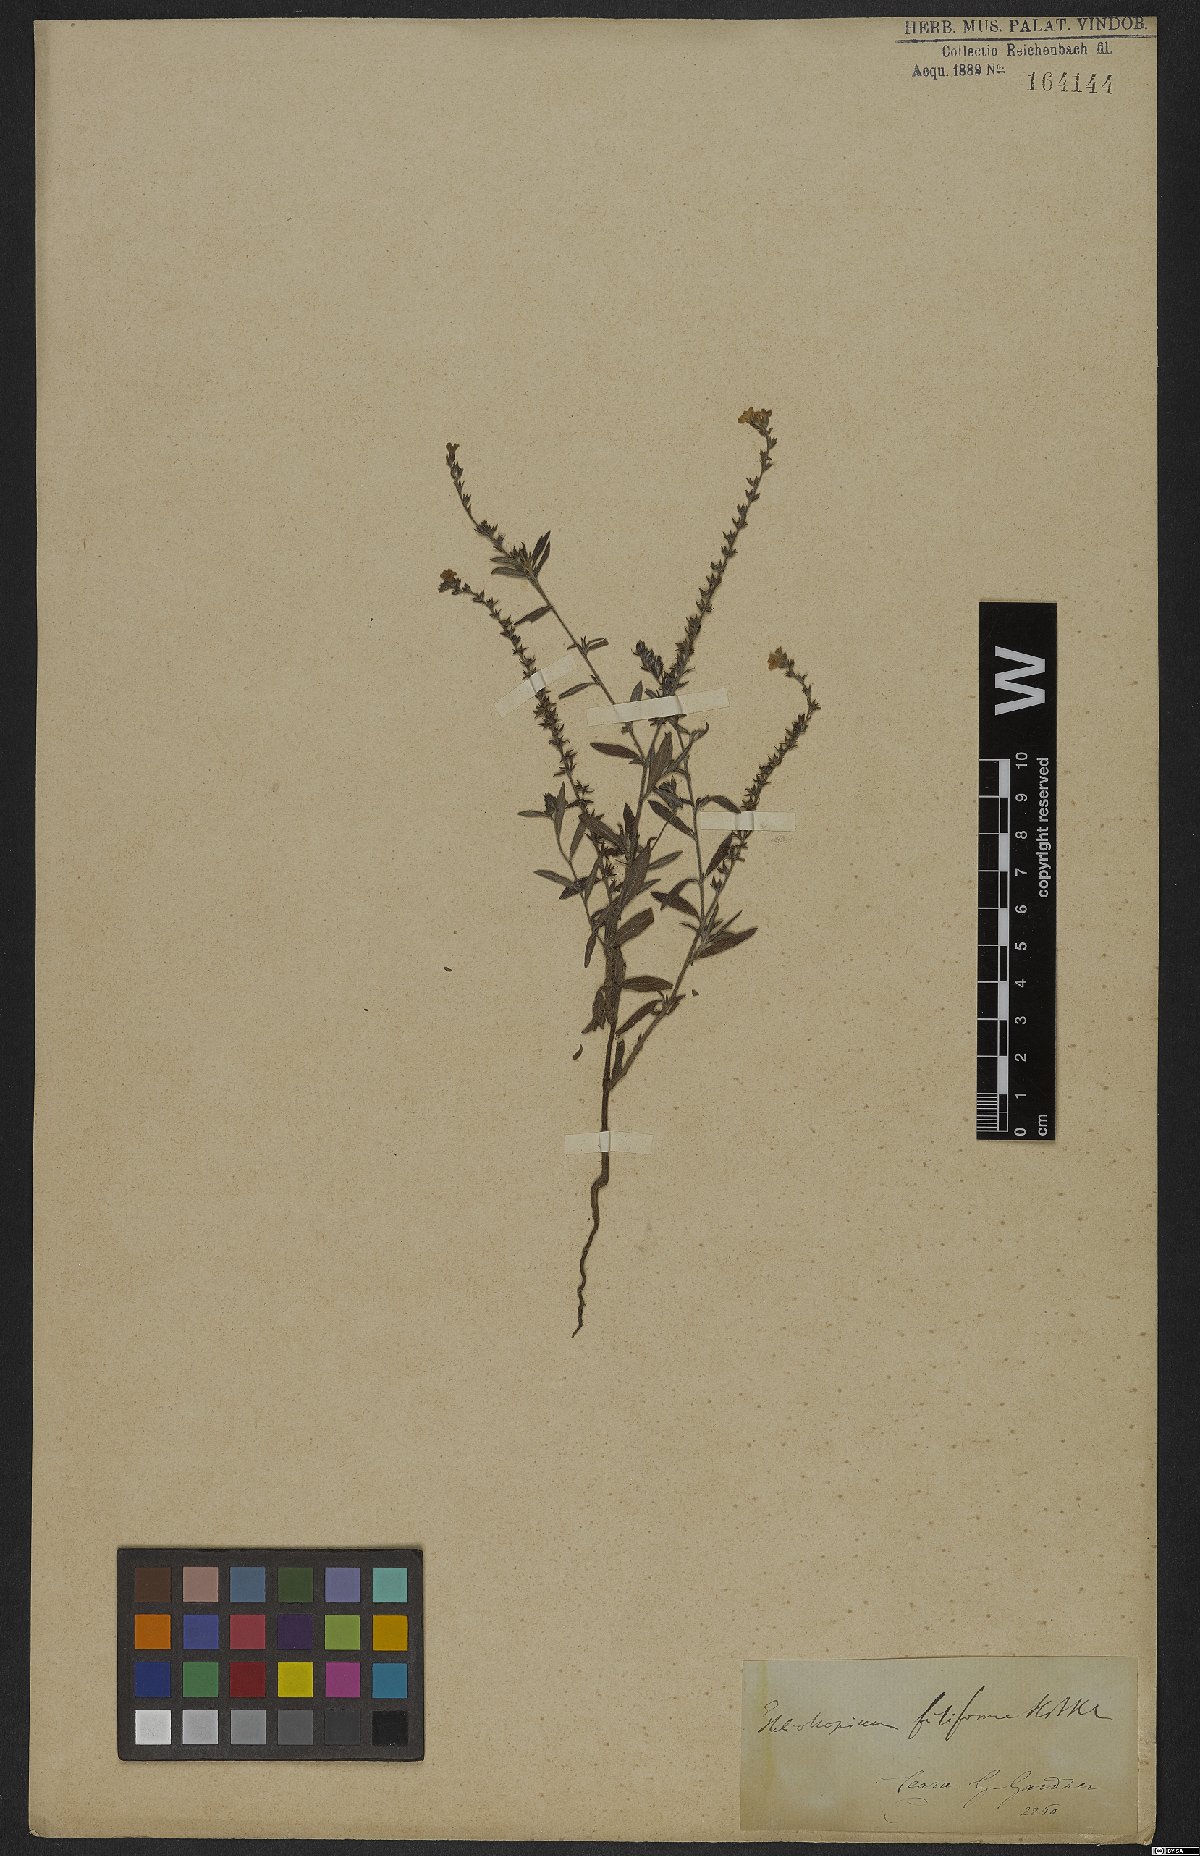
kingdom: Plantae
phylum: Tracheophyta
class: Magnoliopsida
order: Boraginales
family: Heliotropiaceae
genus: Euploca
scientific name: Euploca filiformis
